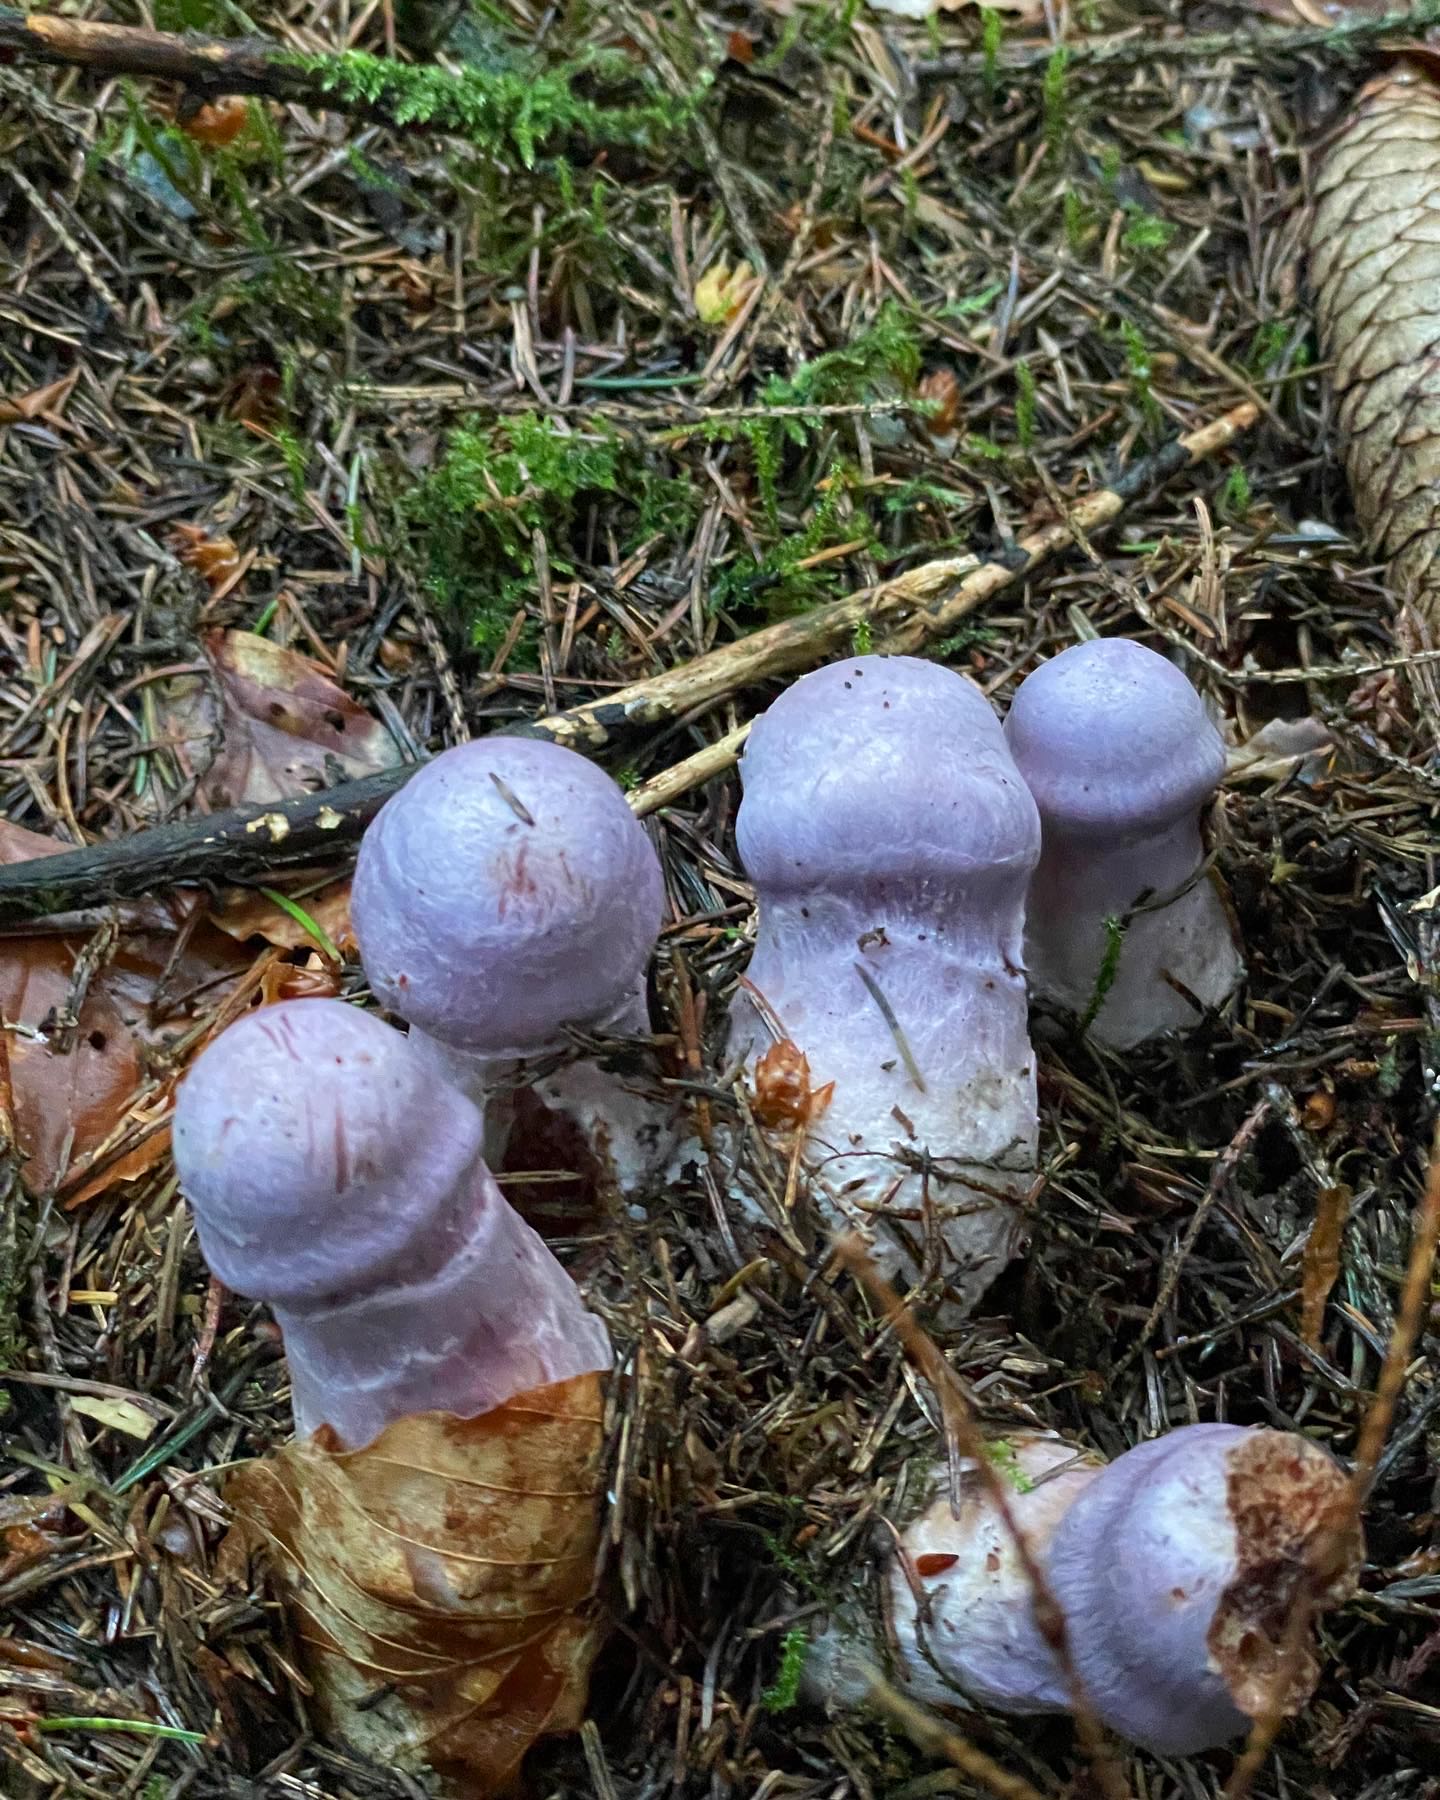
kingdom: Fungi
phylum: Basidiomycota
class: Agaricomycetes
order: Agaricales
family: Cortinariaceae
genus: Cortinarius
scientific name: Cortinarius
